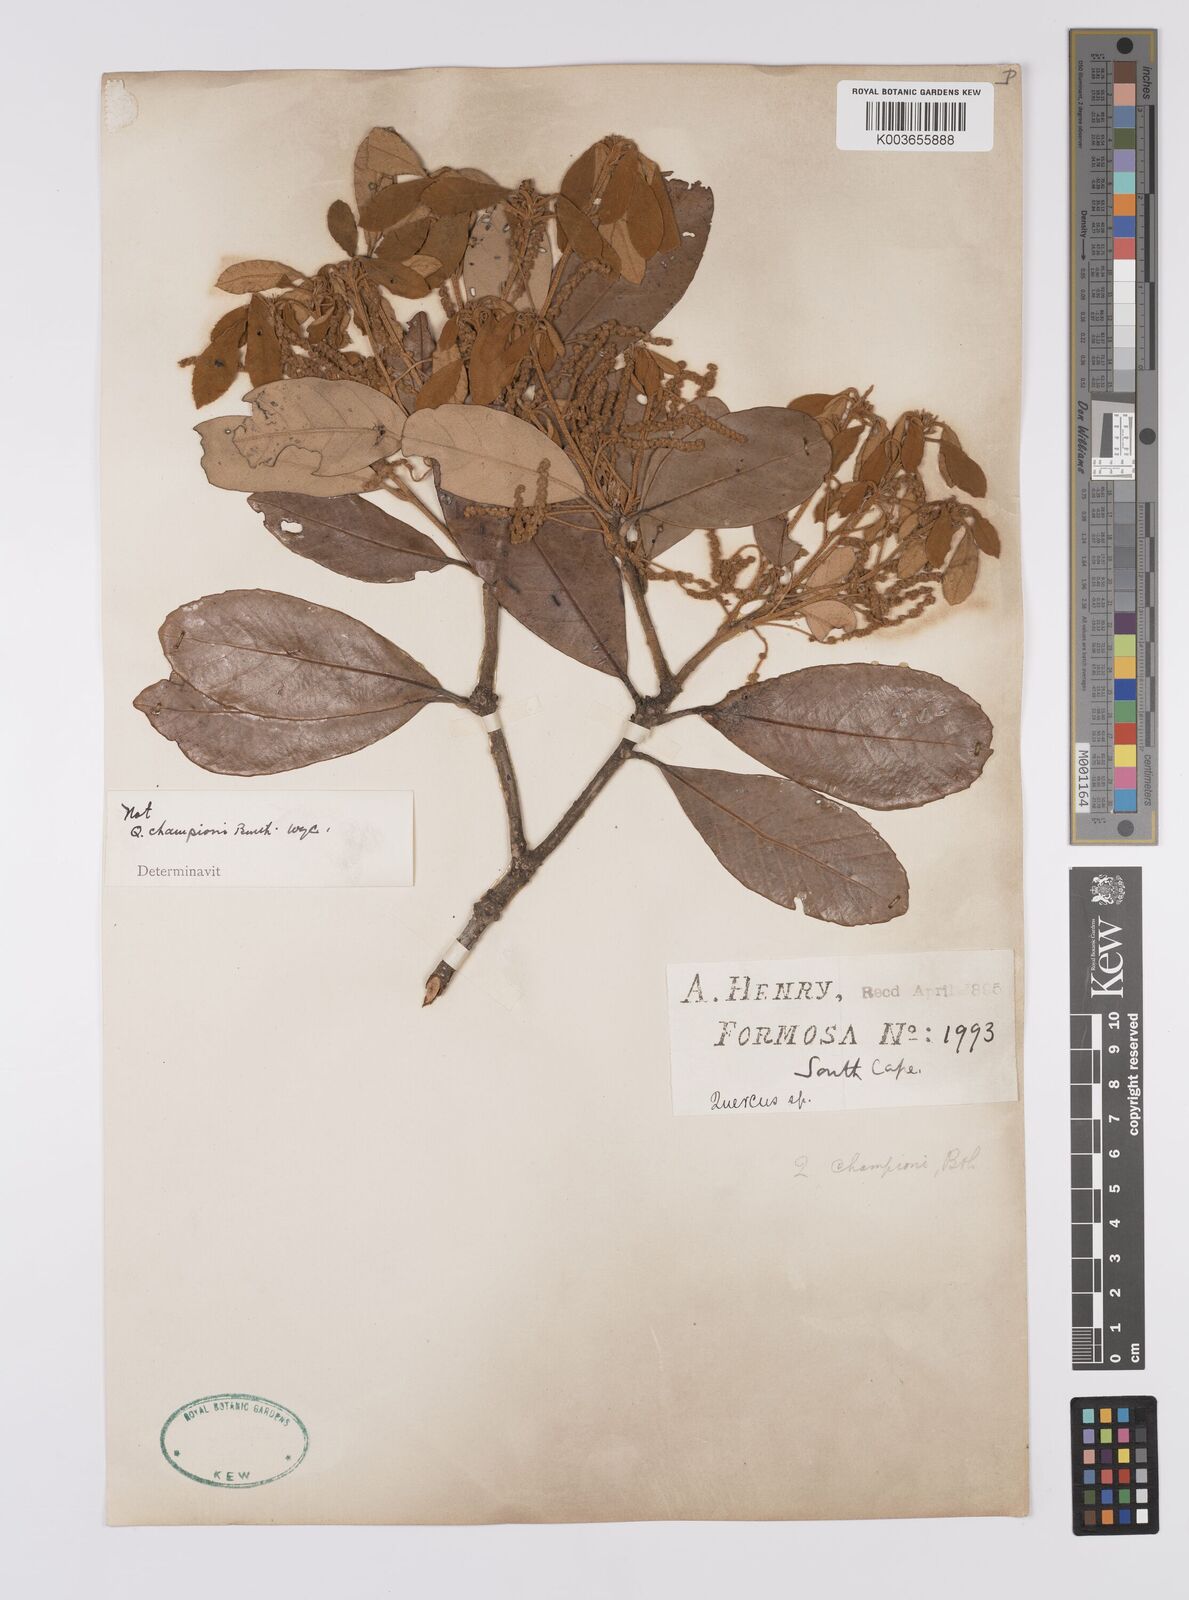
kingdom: Plantae
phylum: Tracheophyta
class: Magnoliopsida
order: Fagales
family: Fagaceae
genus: Quercus
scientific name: Quercus championii
